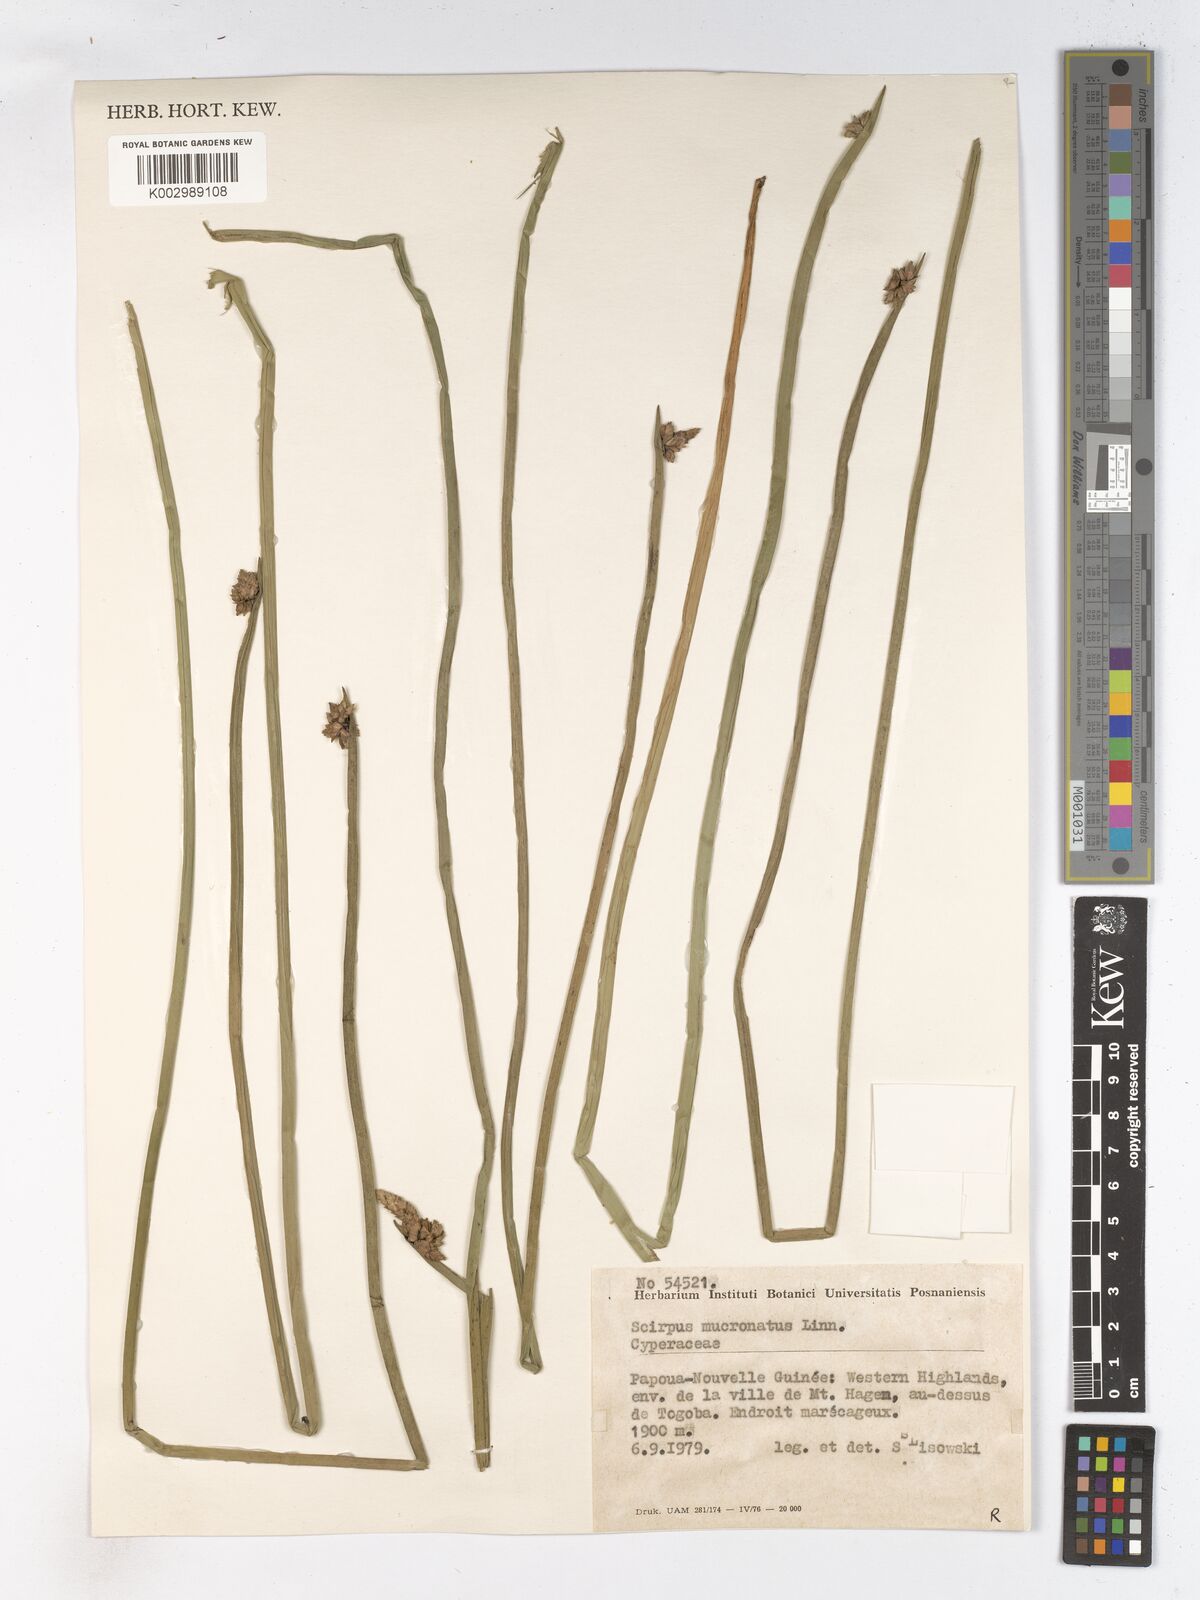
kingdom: Plantae
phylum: Tracheophyta
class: Liliopsida
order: Poales
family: Cyperaceae
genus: Schoenoplectiella
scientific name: Schoenoplectiella mucronata
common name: Bog bulrush
